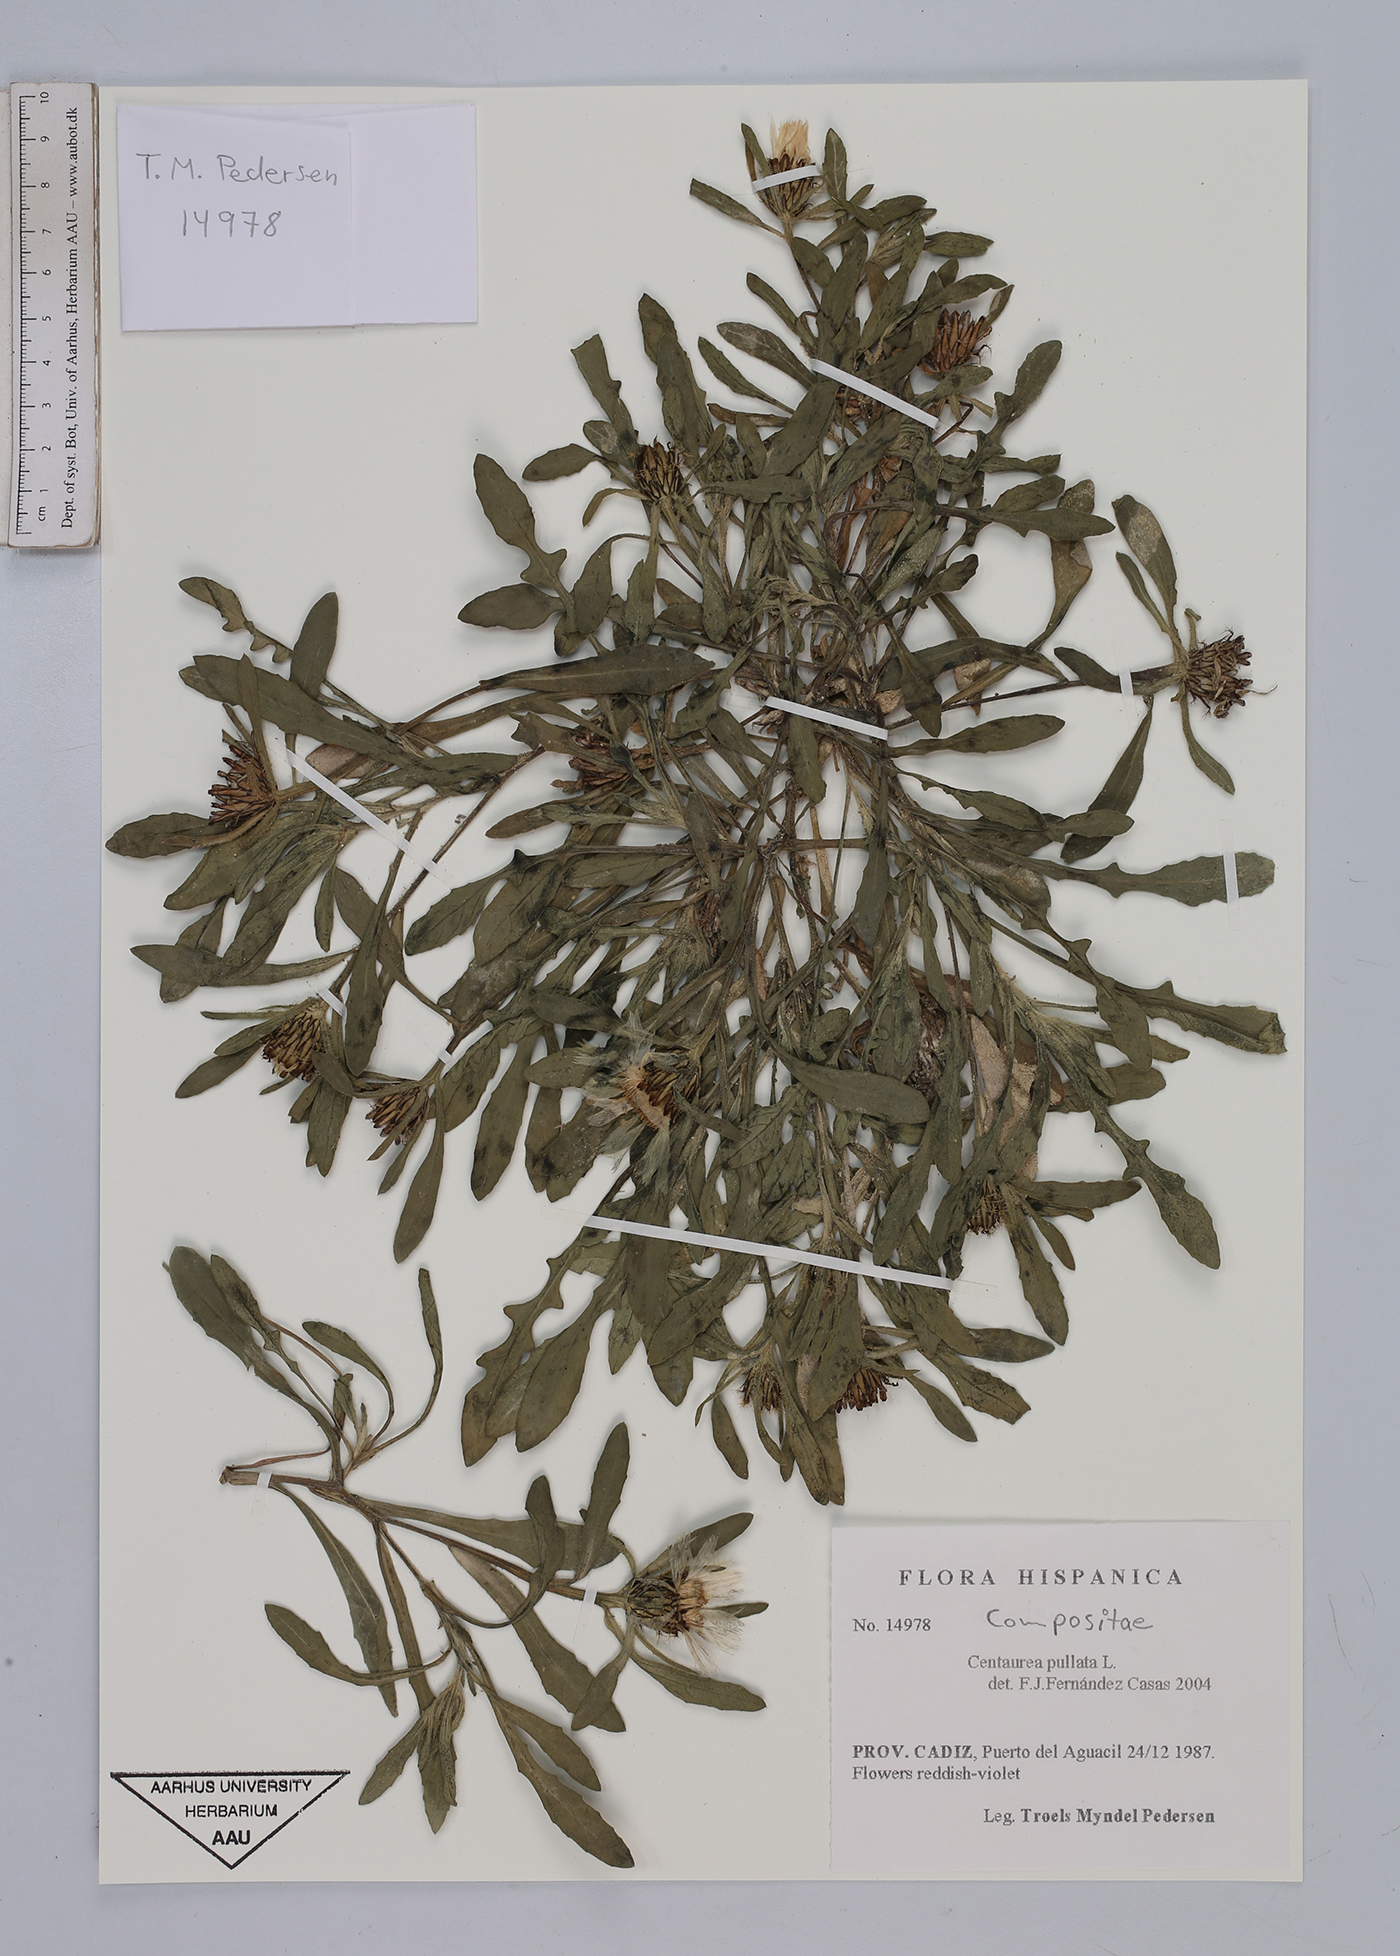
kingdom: Plantae
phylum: Tracheophyta
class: Magnoliopsida
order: Asterales
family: Asteraceae
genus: Centaurea
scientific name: Centaurea pullata
